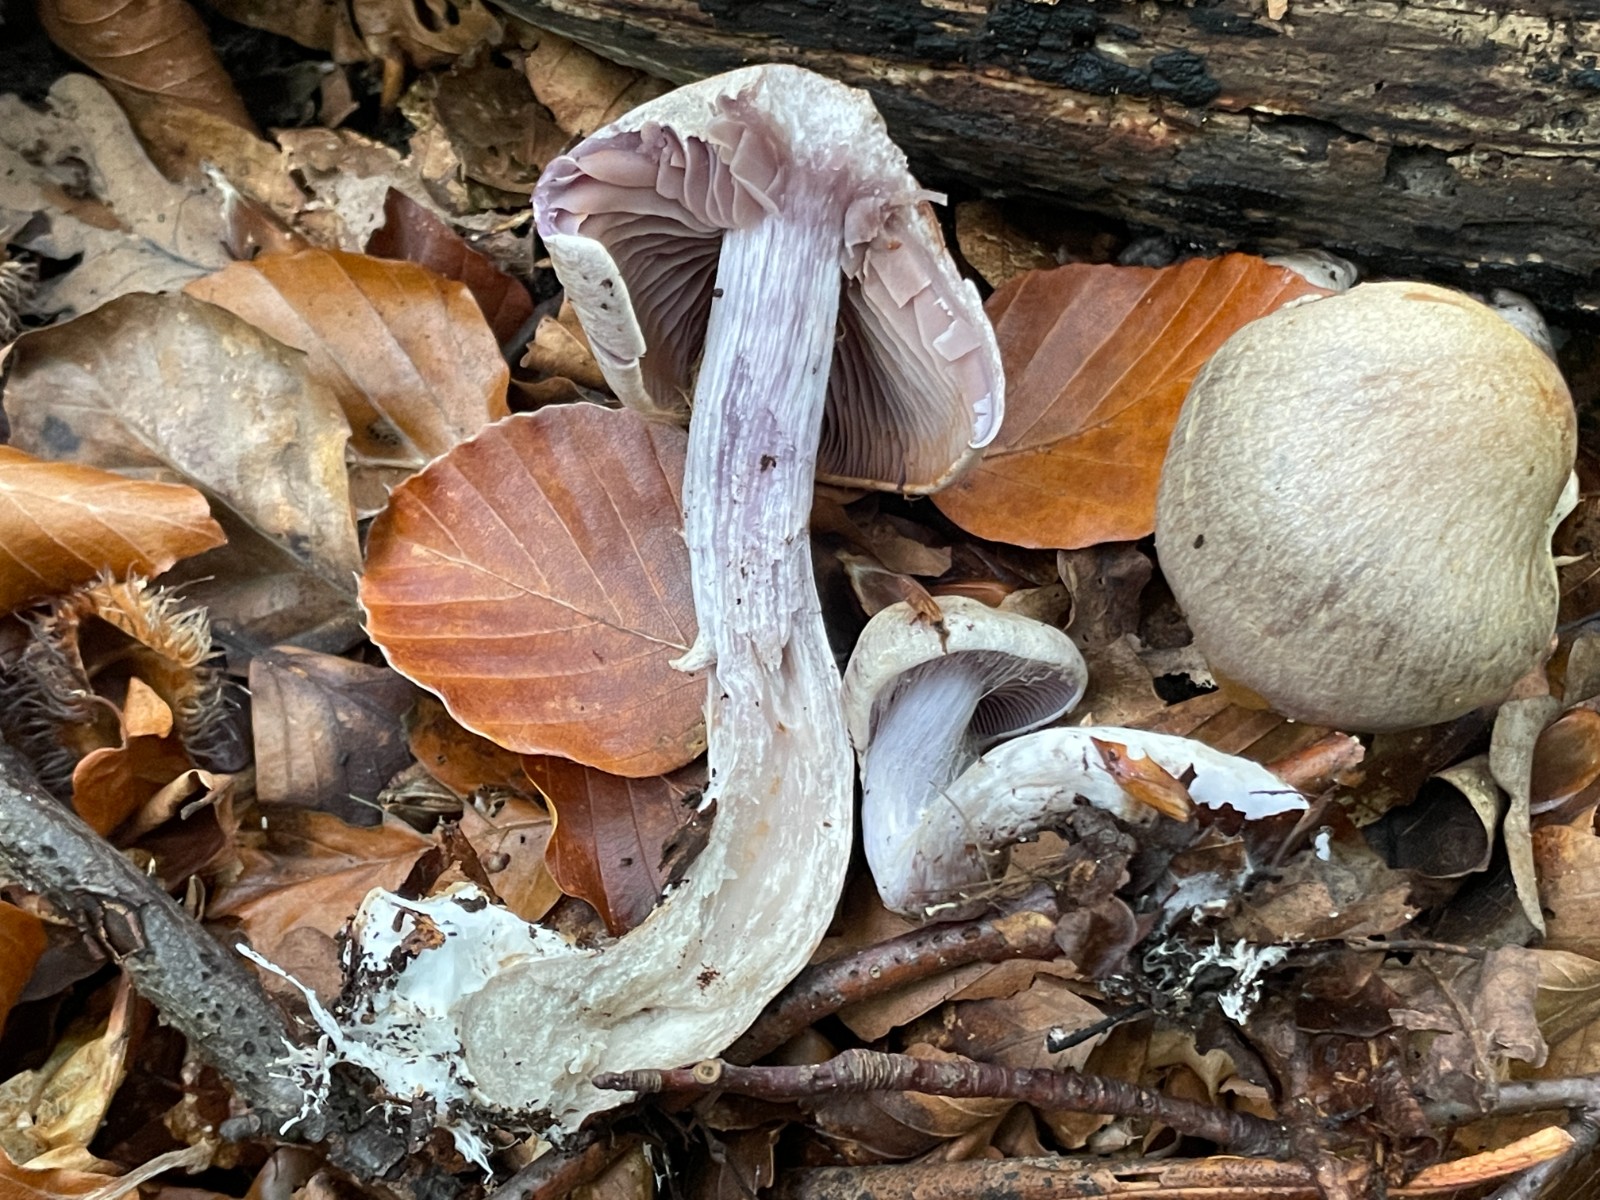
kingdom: Fungi
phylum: Basidiomycota
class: Agaricomycetes
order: Agaricales
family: Cortinariaceae
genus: Cortinarius
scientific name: Cortinarius
